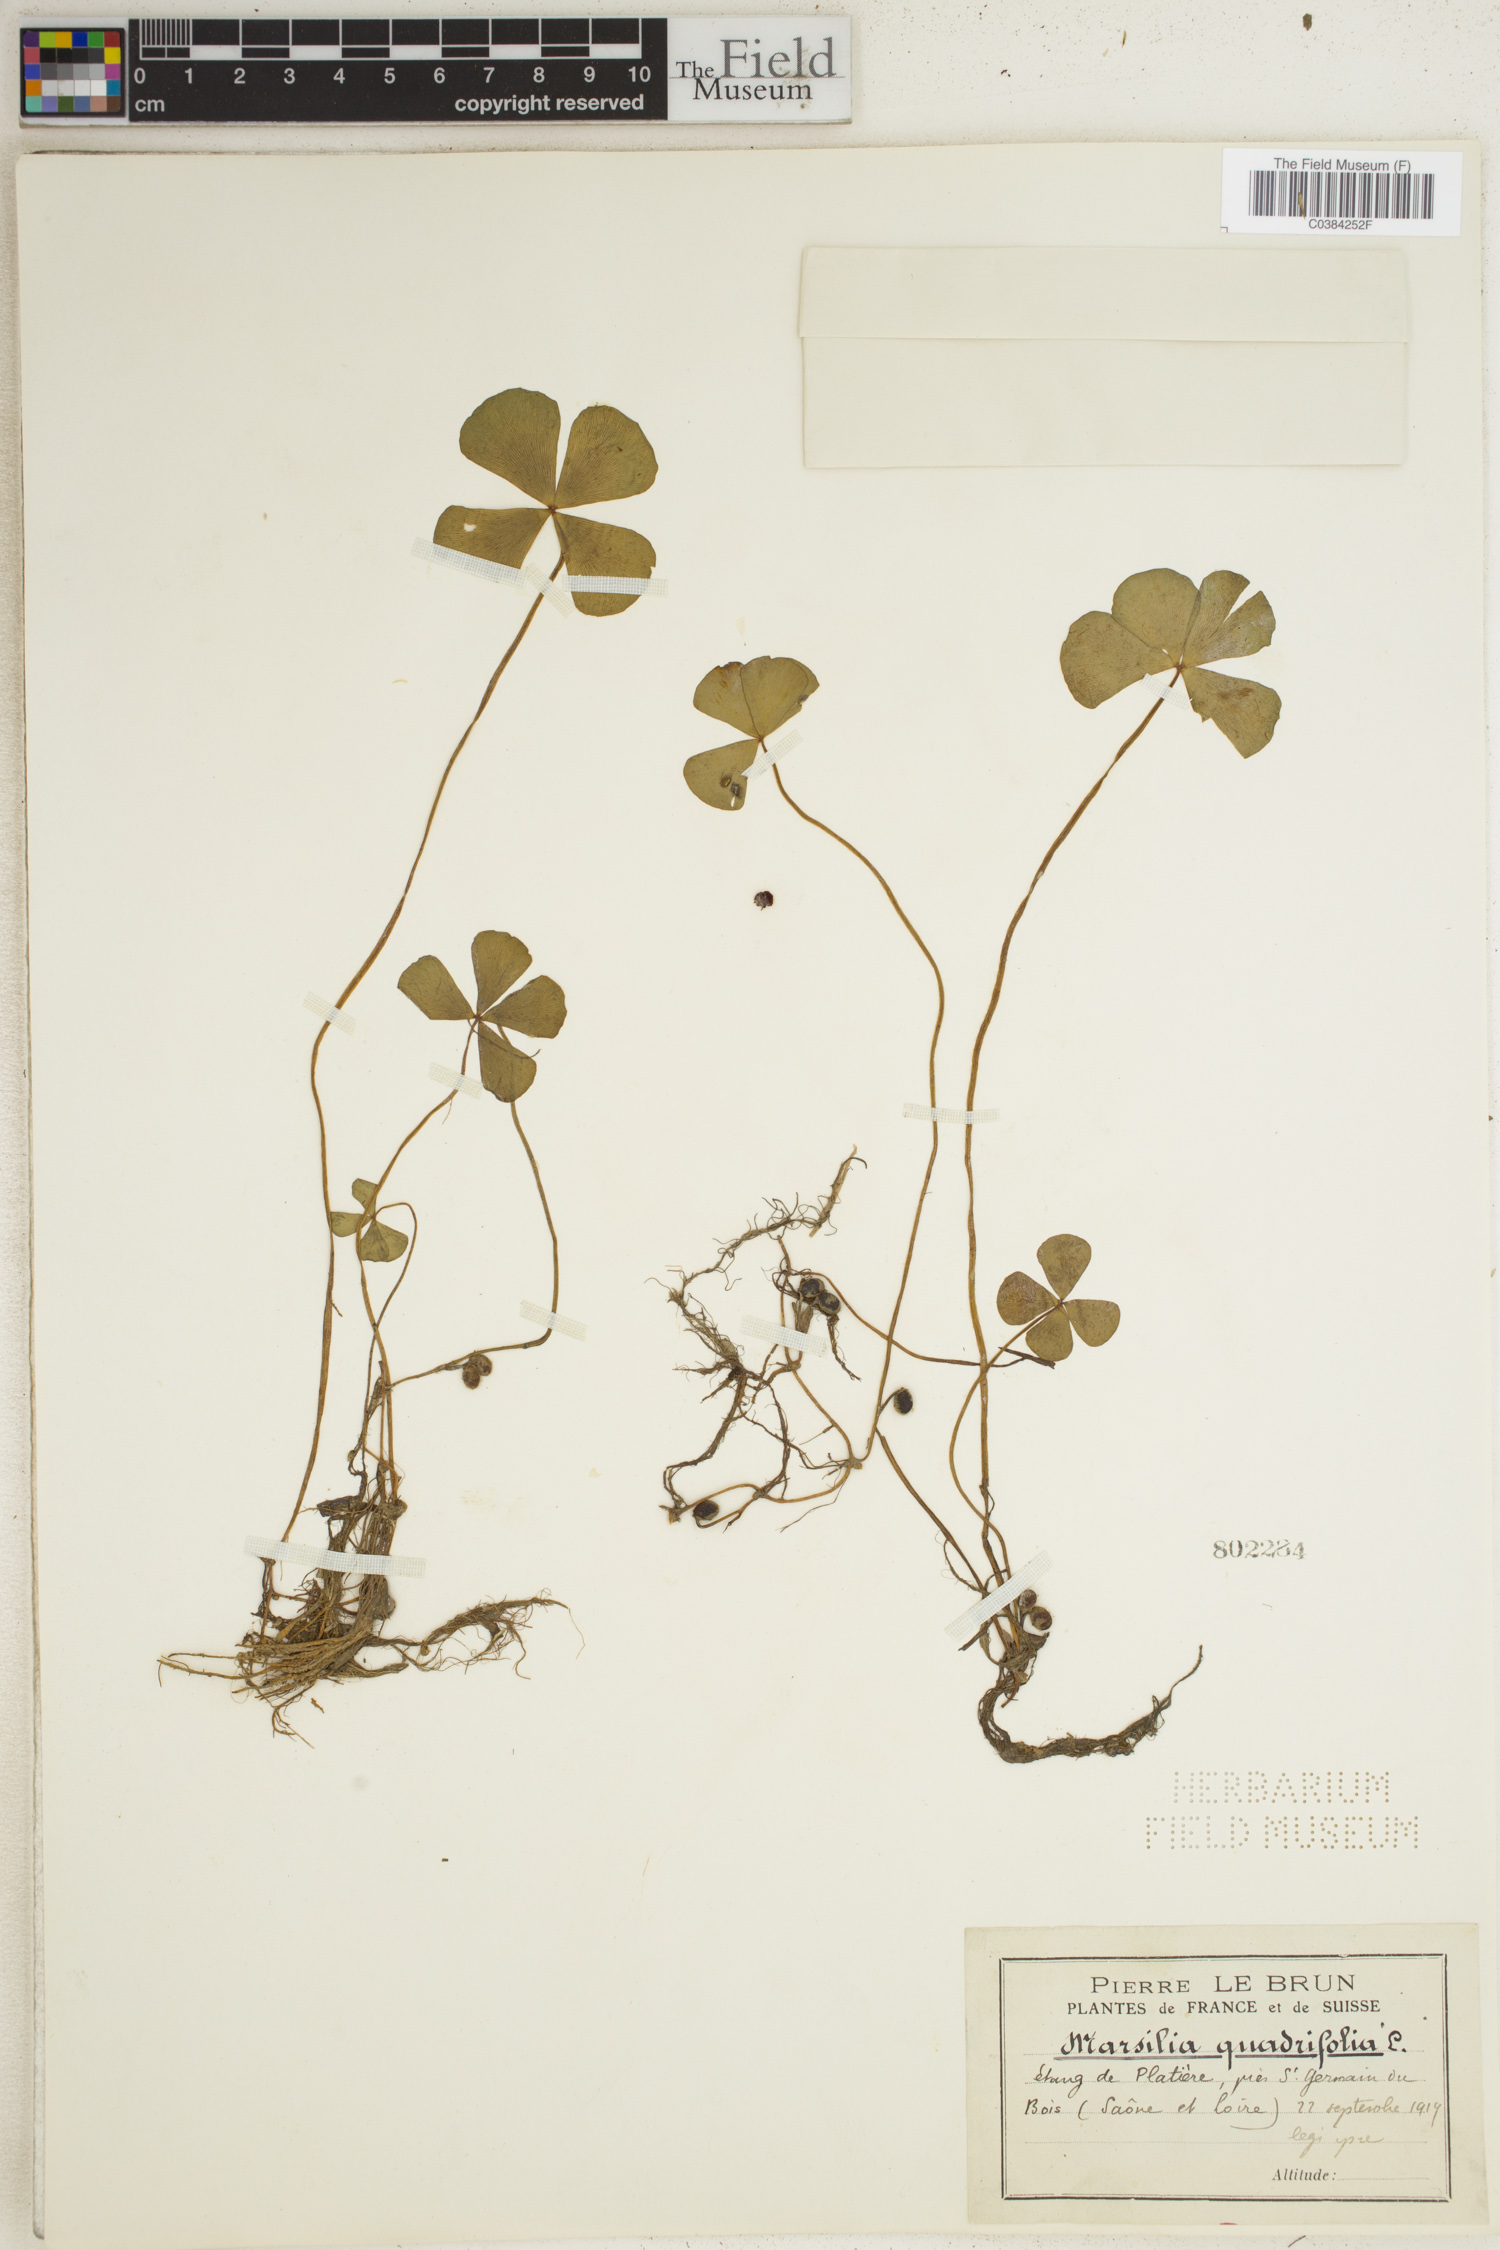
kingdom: Plantae
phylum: Tracheophyta
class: Polypodiopsida
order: Salviniales
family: Marsileaceae
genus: Marsilea
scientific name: Marsilea quadrifolia
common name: Water shamrock
